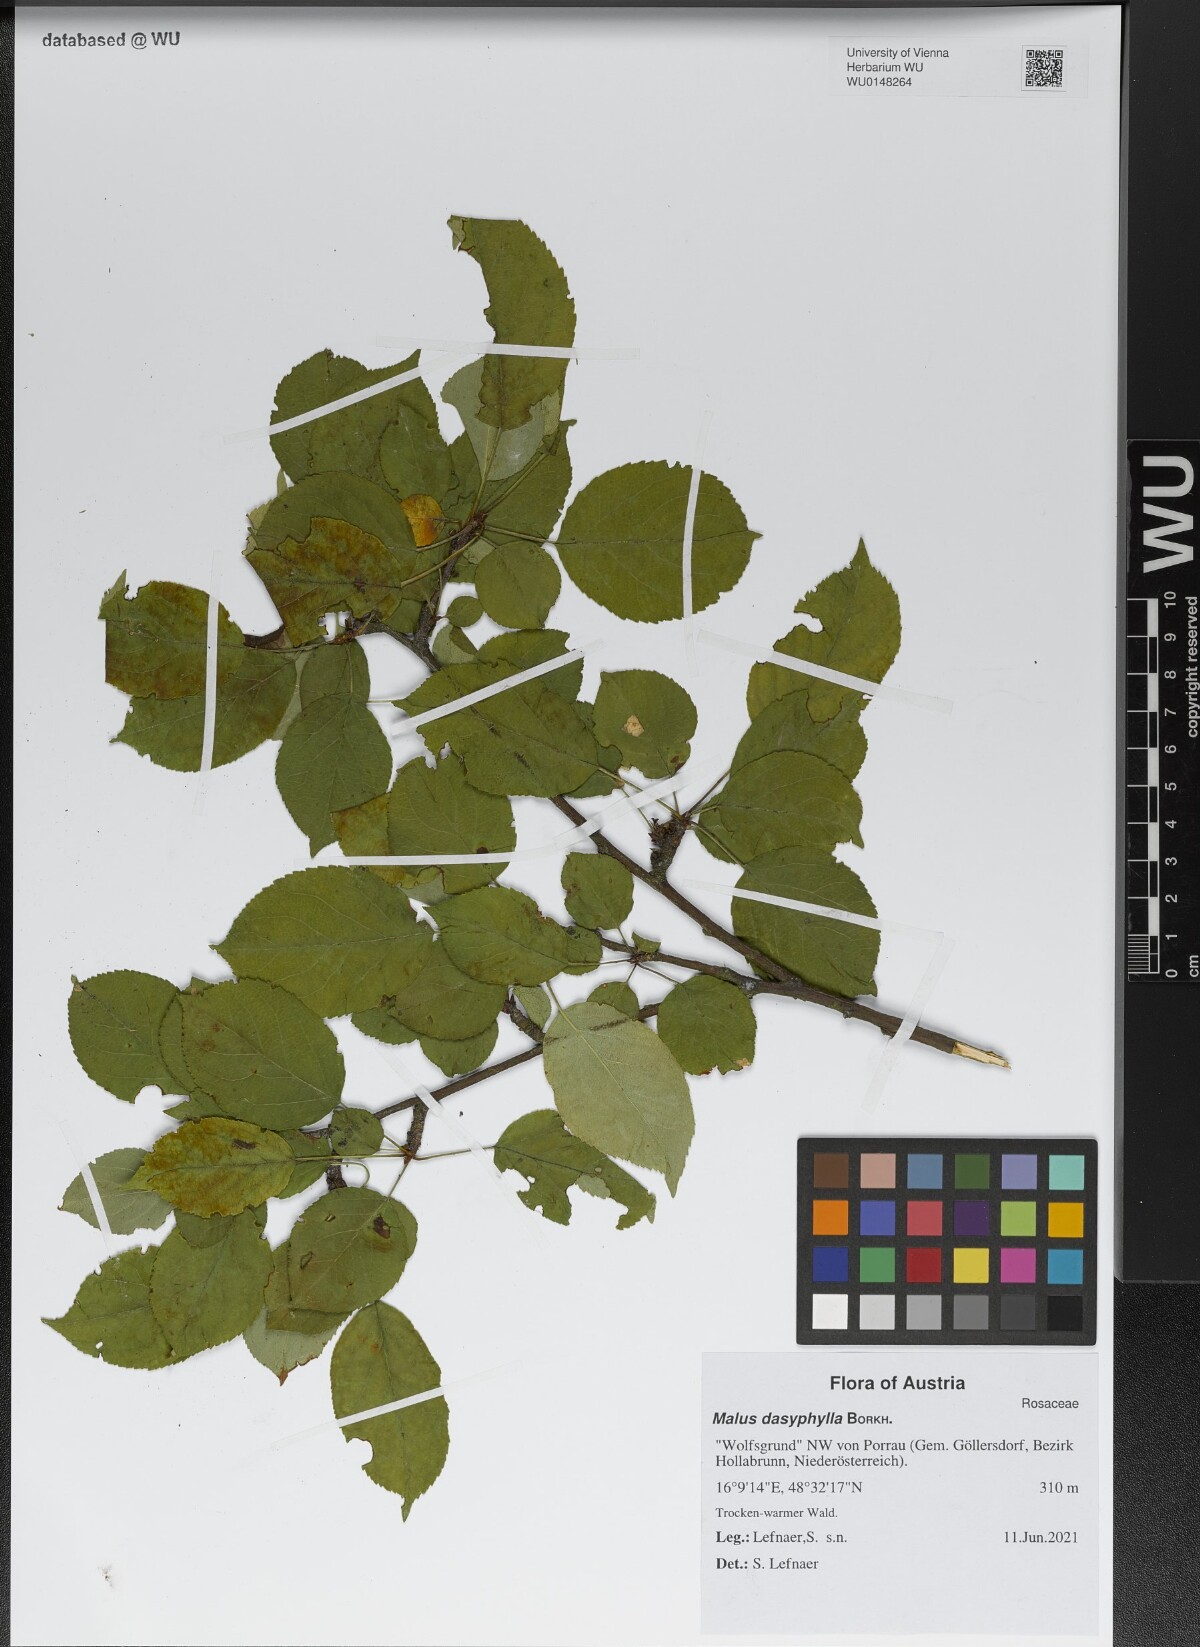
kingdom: Plantae
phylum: Tracheophyta
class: Magnoliopsida
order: Rosales
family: Rosaceae
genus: Malus
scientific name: Malus dasyphylla
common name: Paradise apple
